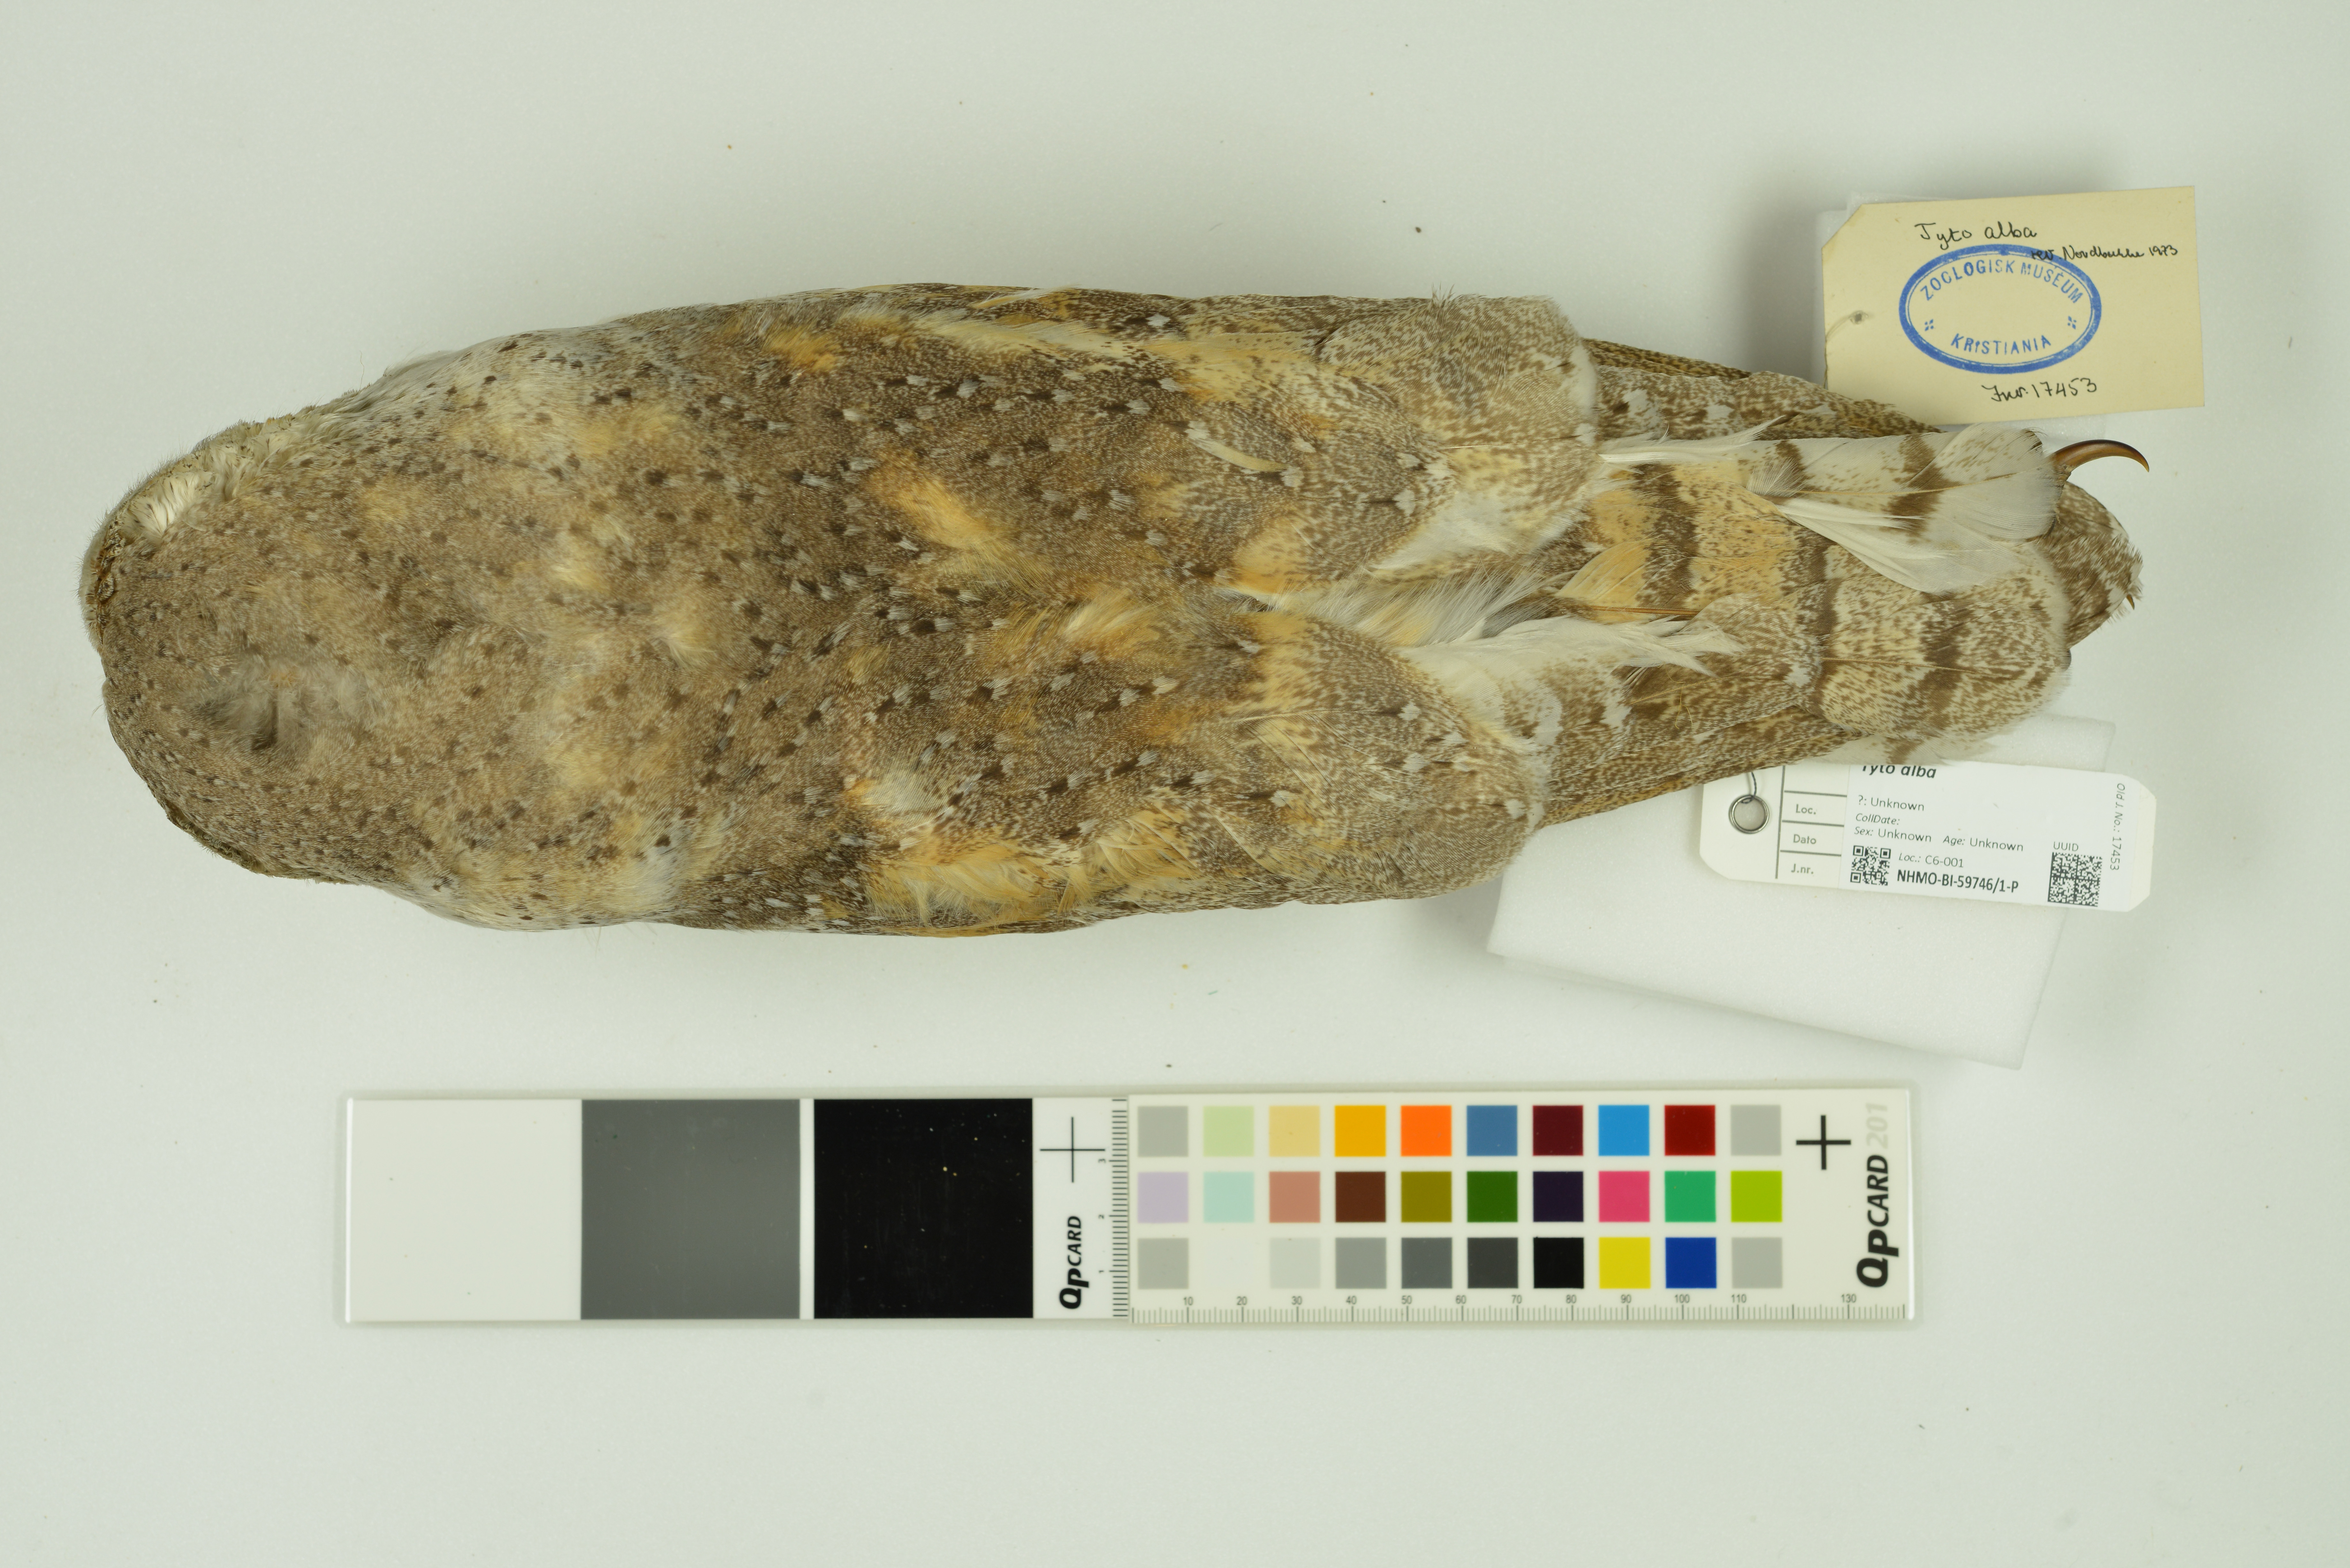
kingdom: Animalia
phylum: Chordata
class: Aves
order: Strigiformes
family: Tytonidae
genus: Tyto
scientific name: Tyto alba
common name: Barn owl
